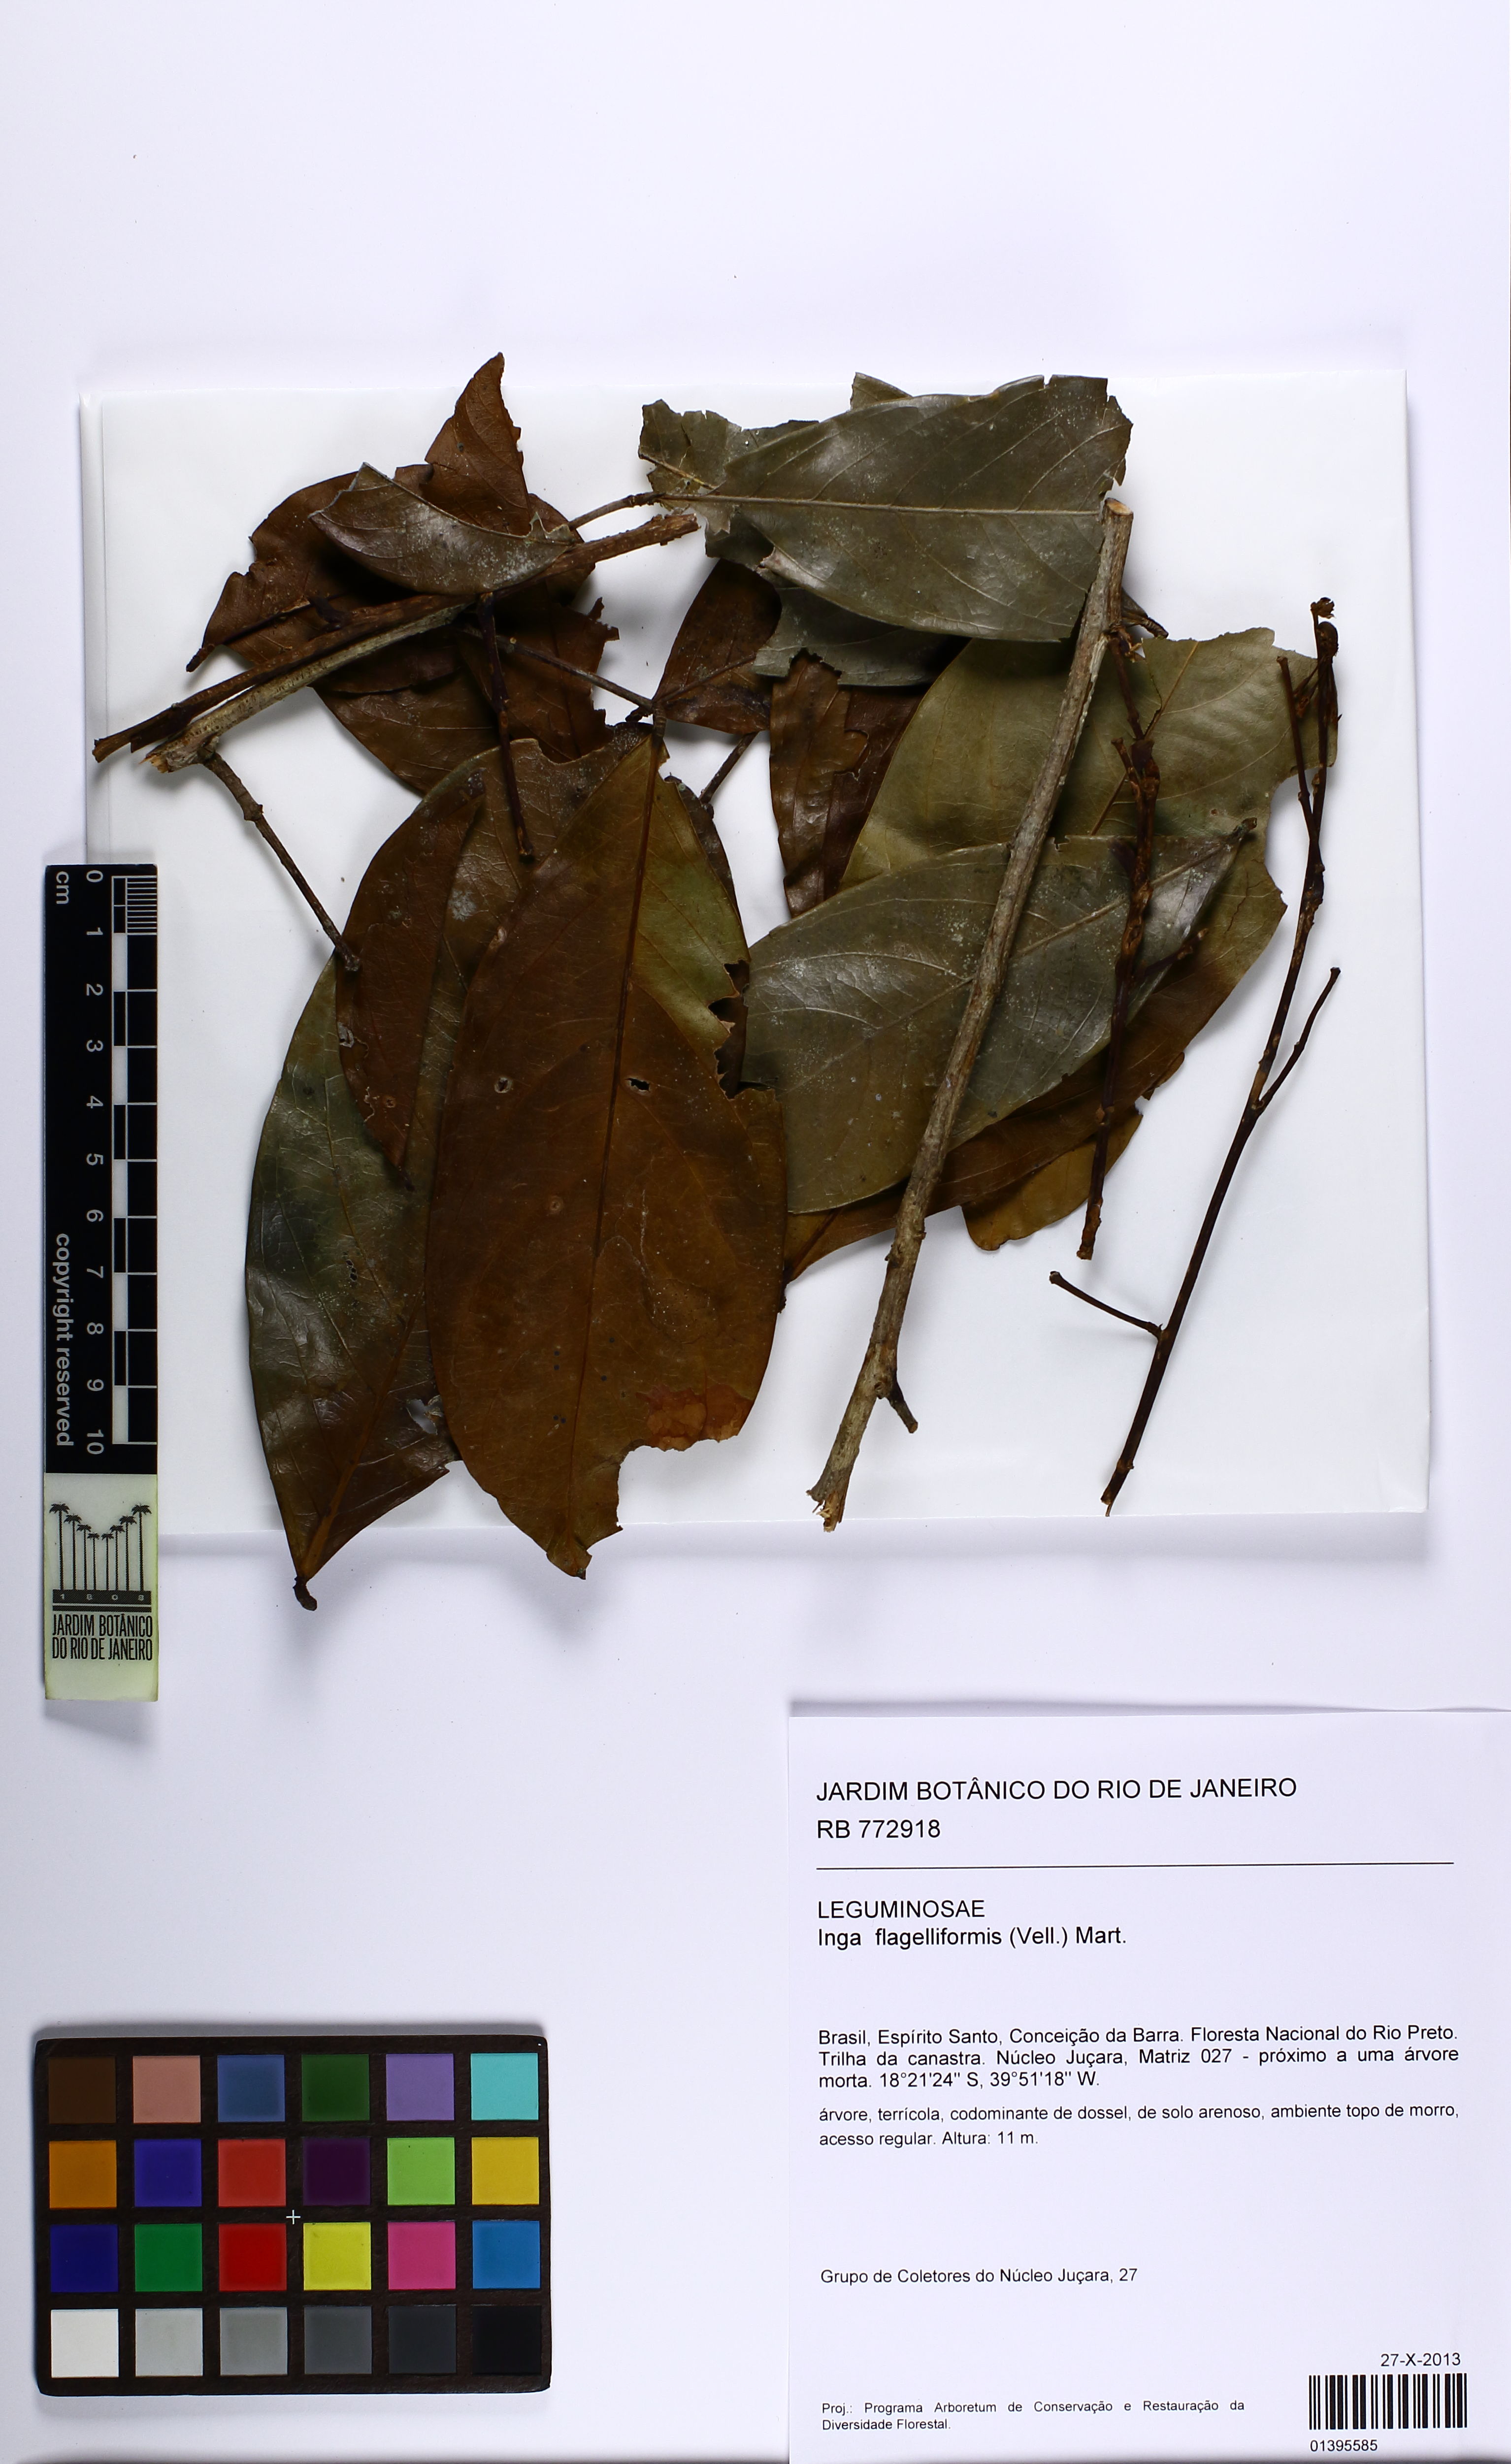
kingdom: Plantae
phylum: Tracheophyta
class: Magnoliopsida
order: Fabales
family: Fabaceae
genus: Inga
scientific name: Inga flagelliformis
